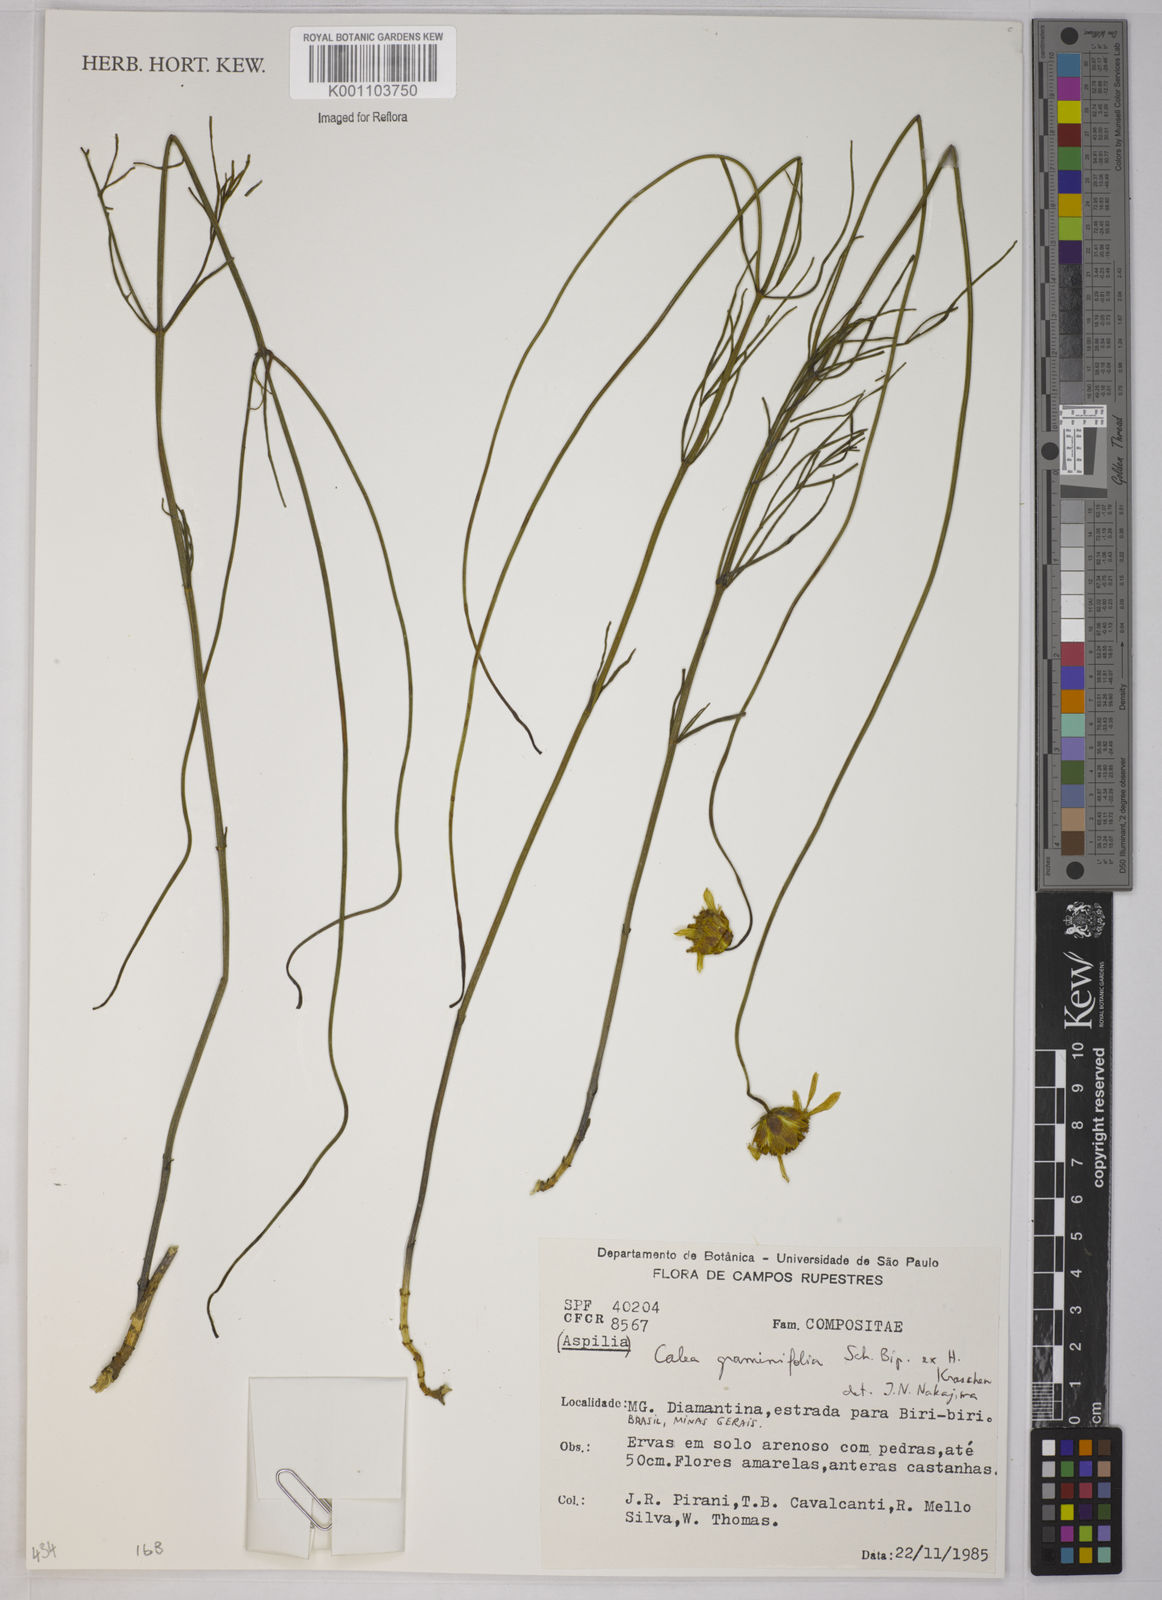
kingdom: Plantae
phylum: Tracheophyta
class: Magnoliopsida
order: Asterales
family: Asteraceae
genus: Calea
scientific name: Calea graminifolia
